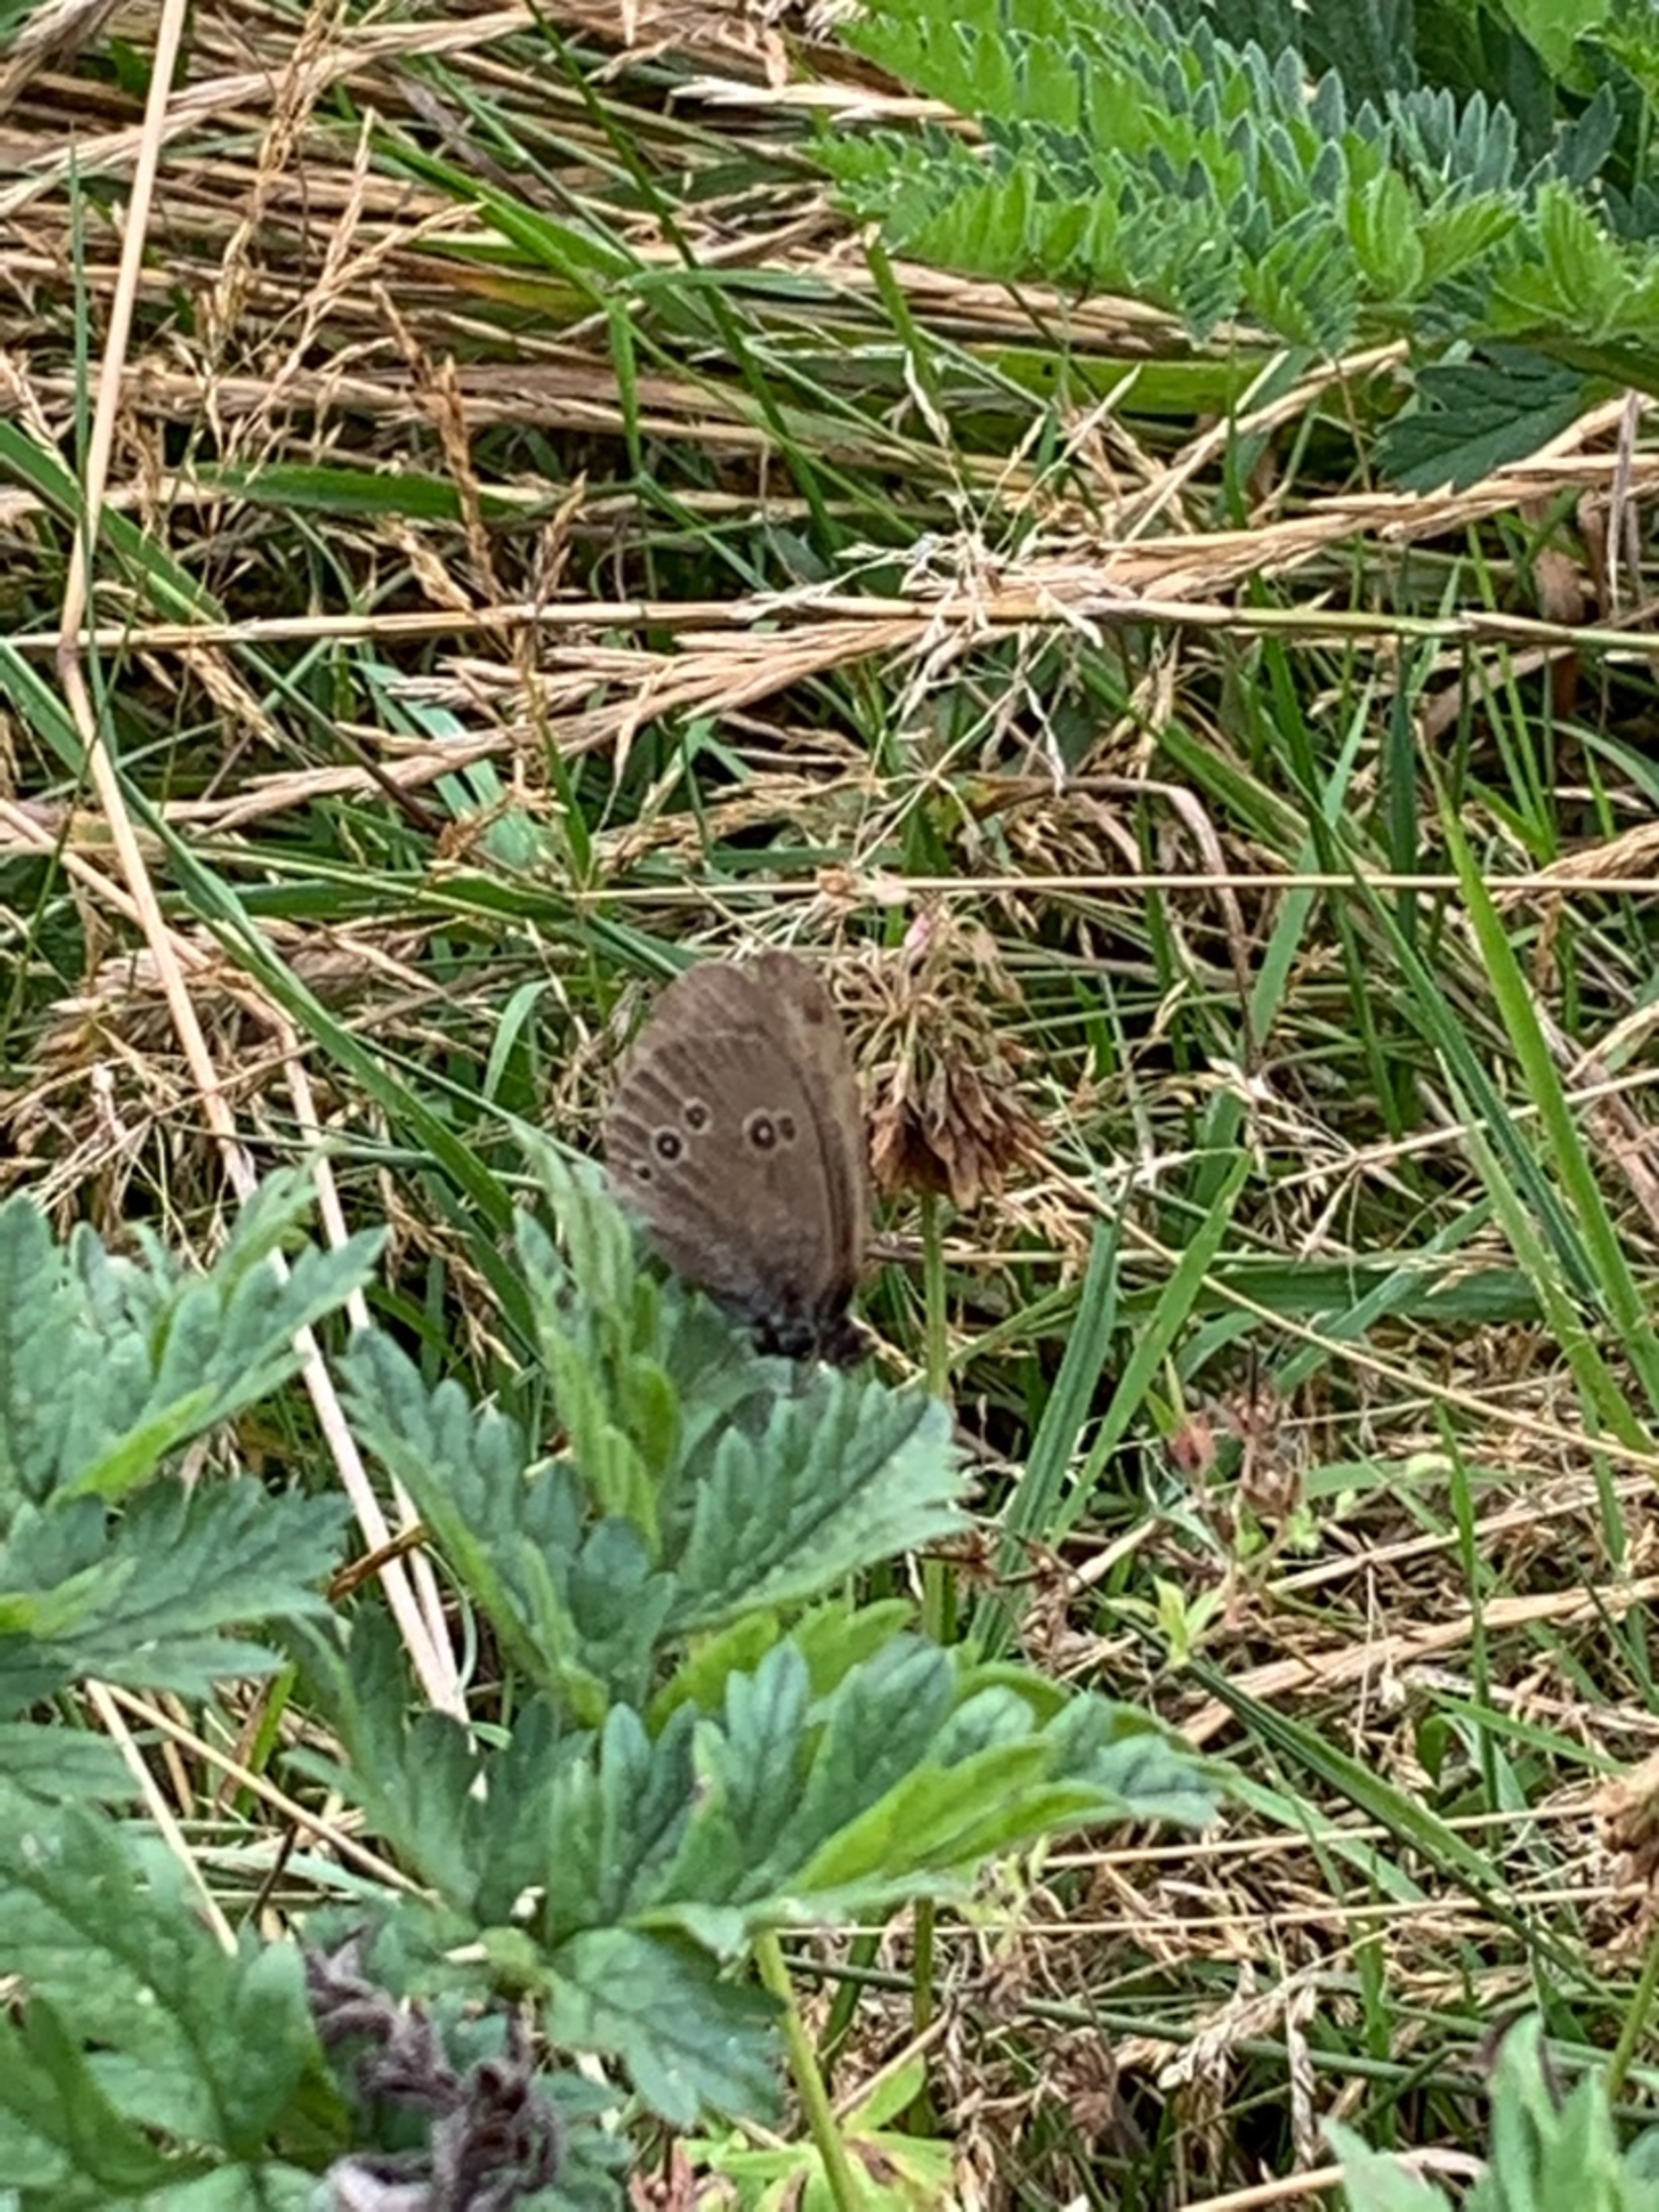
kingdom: Animalia
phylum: Arthropoda
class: Insecta
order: Lepidoptera
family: Nymphalidae
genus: Aphantopus
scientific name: Aphantopus hyperantus
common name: Engrandøje
